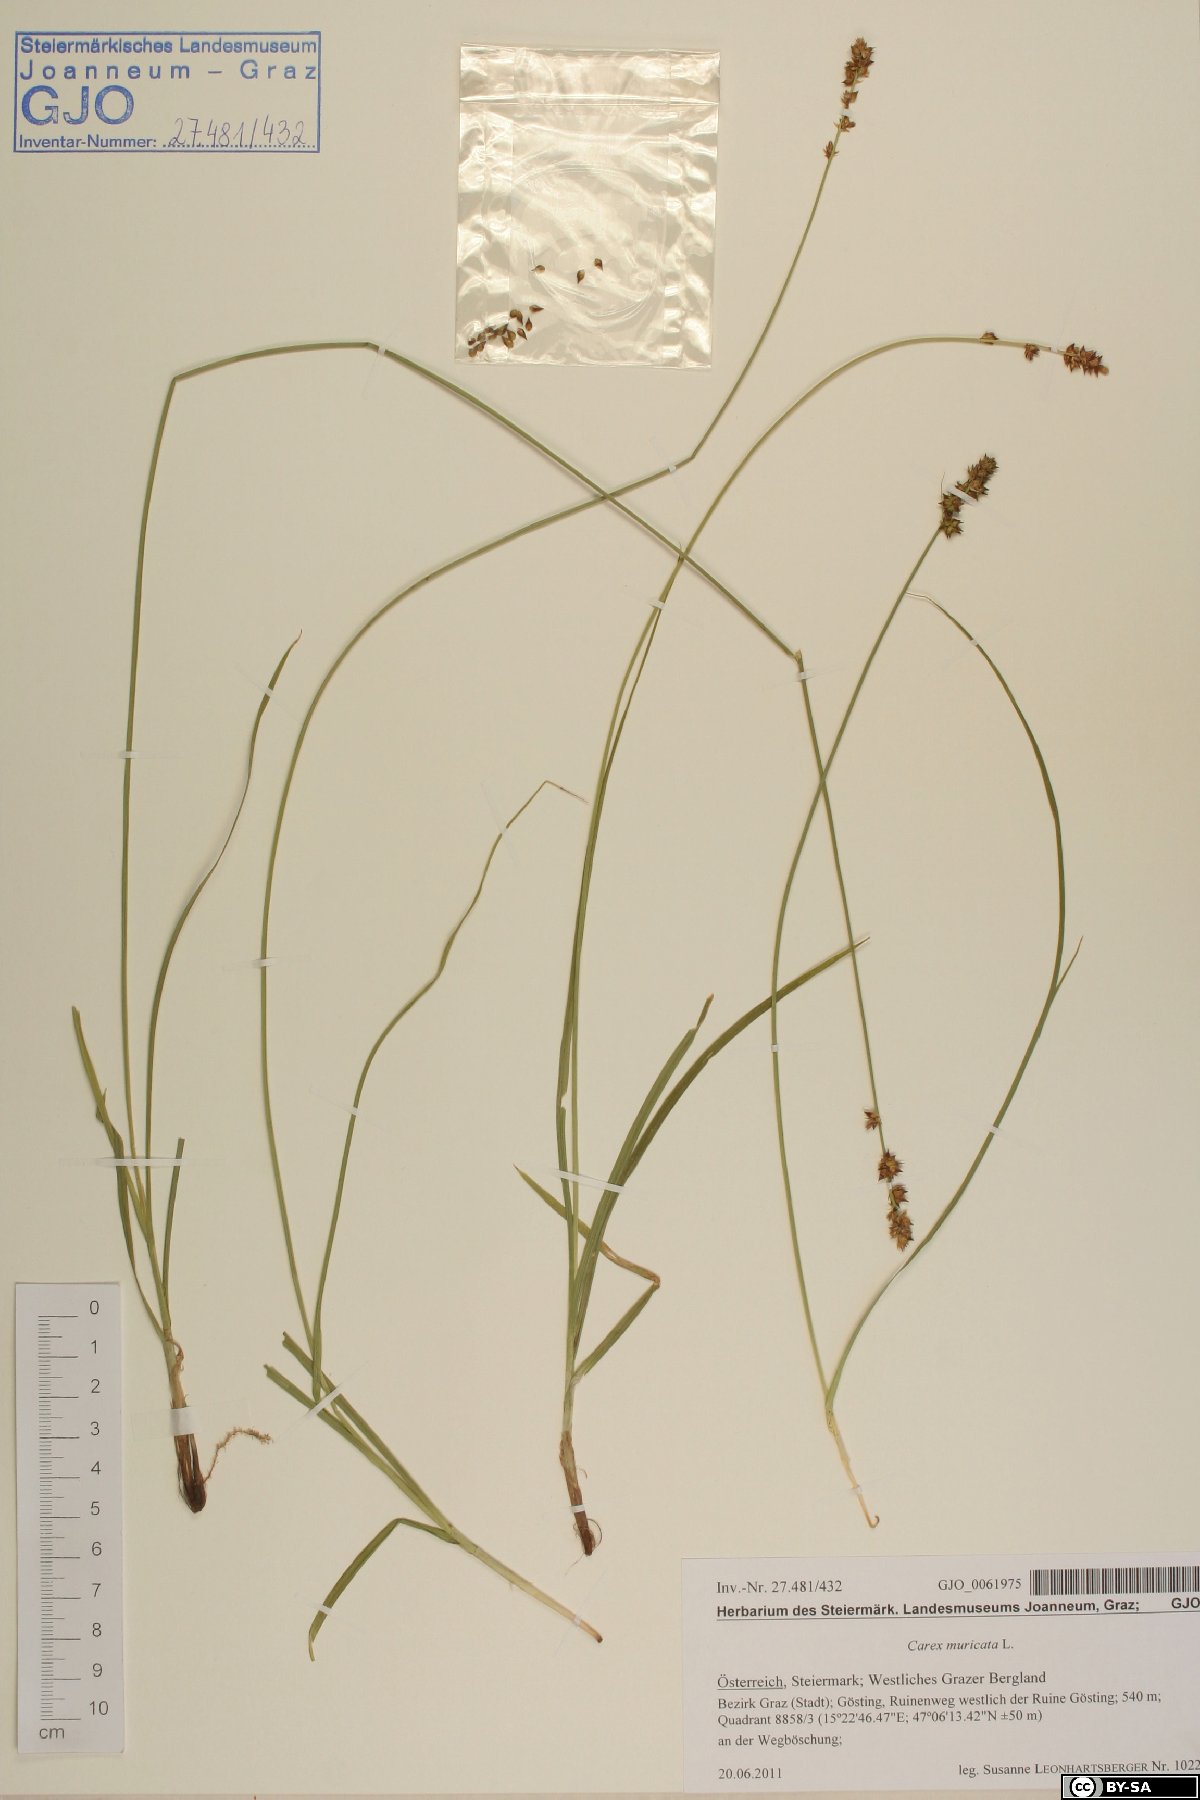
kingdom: Plantae
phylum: Tracheophyta
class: Liliopsida
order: Poales
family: Cyperaceae
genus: Carex
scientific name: Carex muricata
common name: Rough sedge
